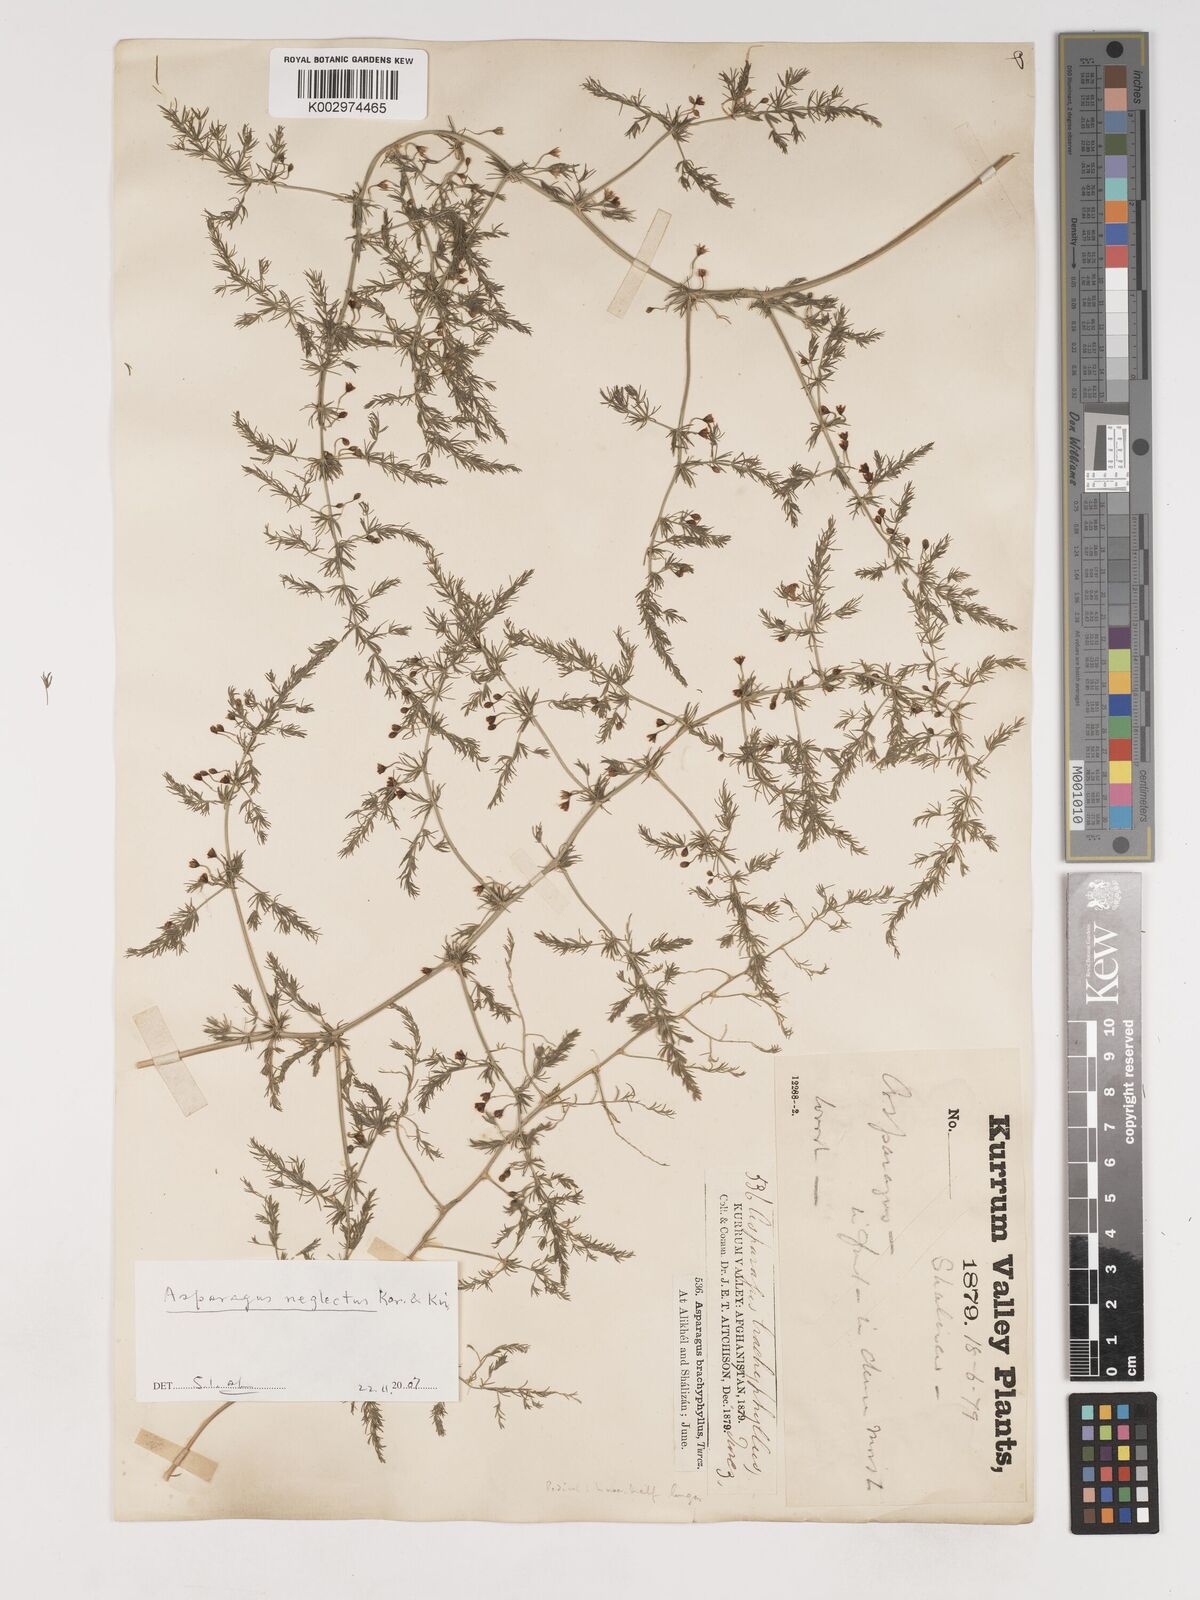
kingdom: Plantae
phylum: Tracheophyta
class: Liliopsida
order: Asparagales
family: Asparagaceae
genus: Asparagus
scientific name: Asparagus neglectus
